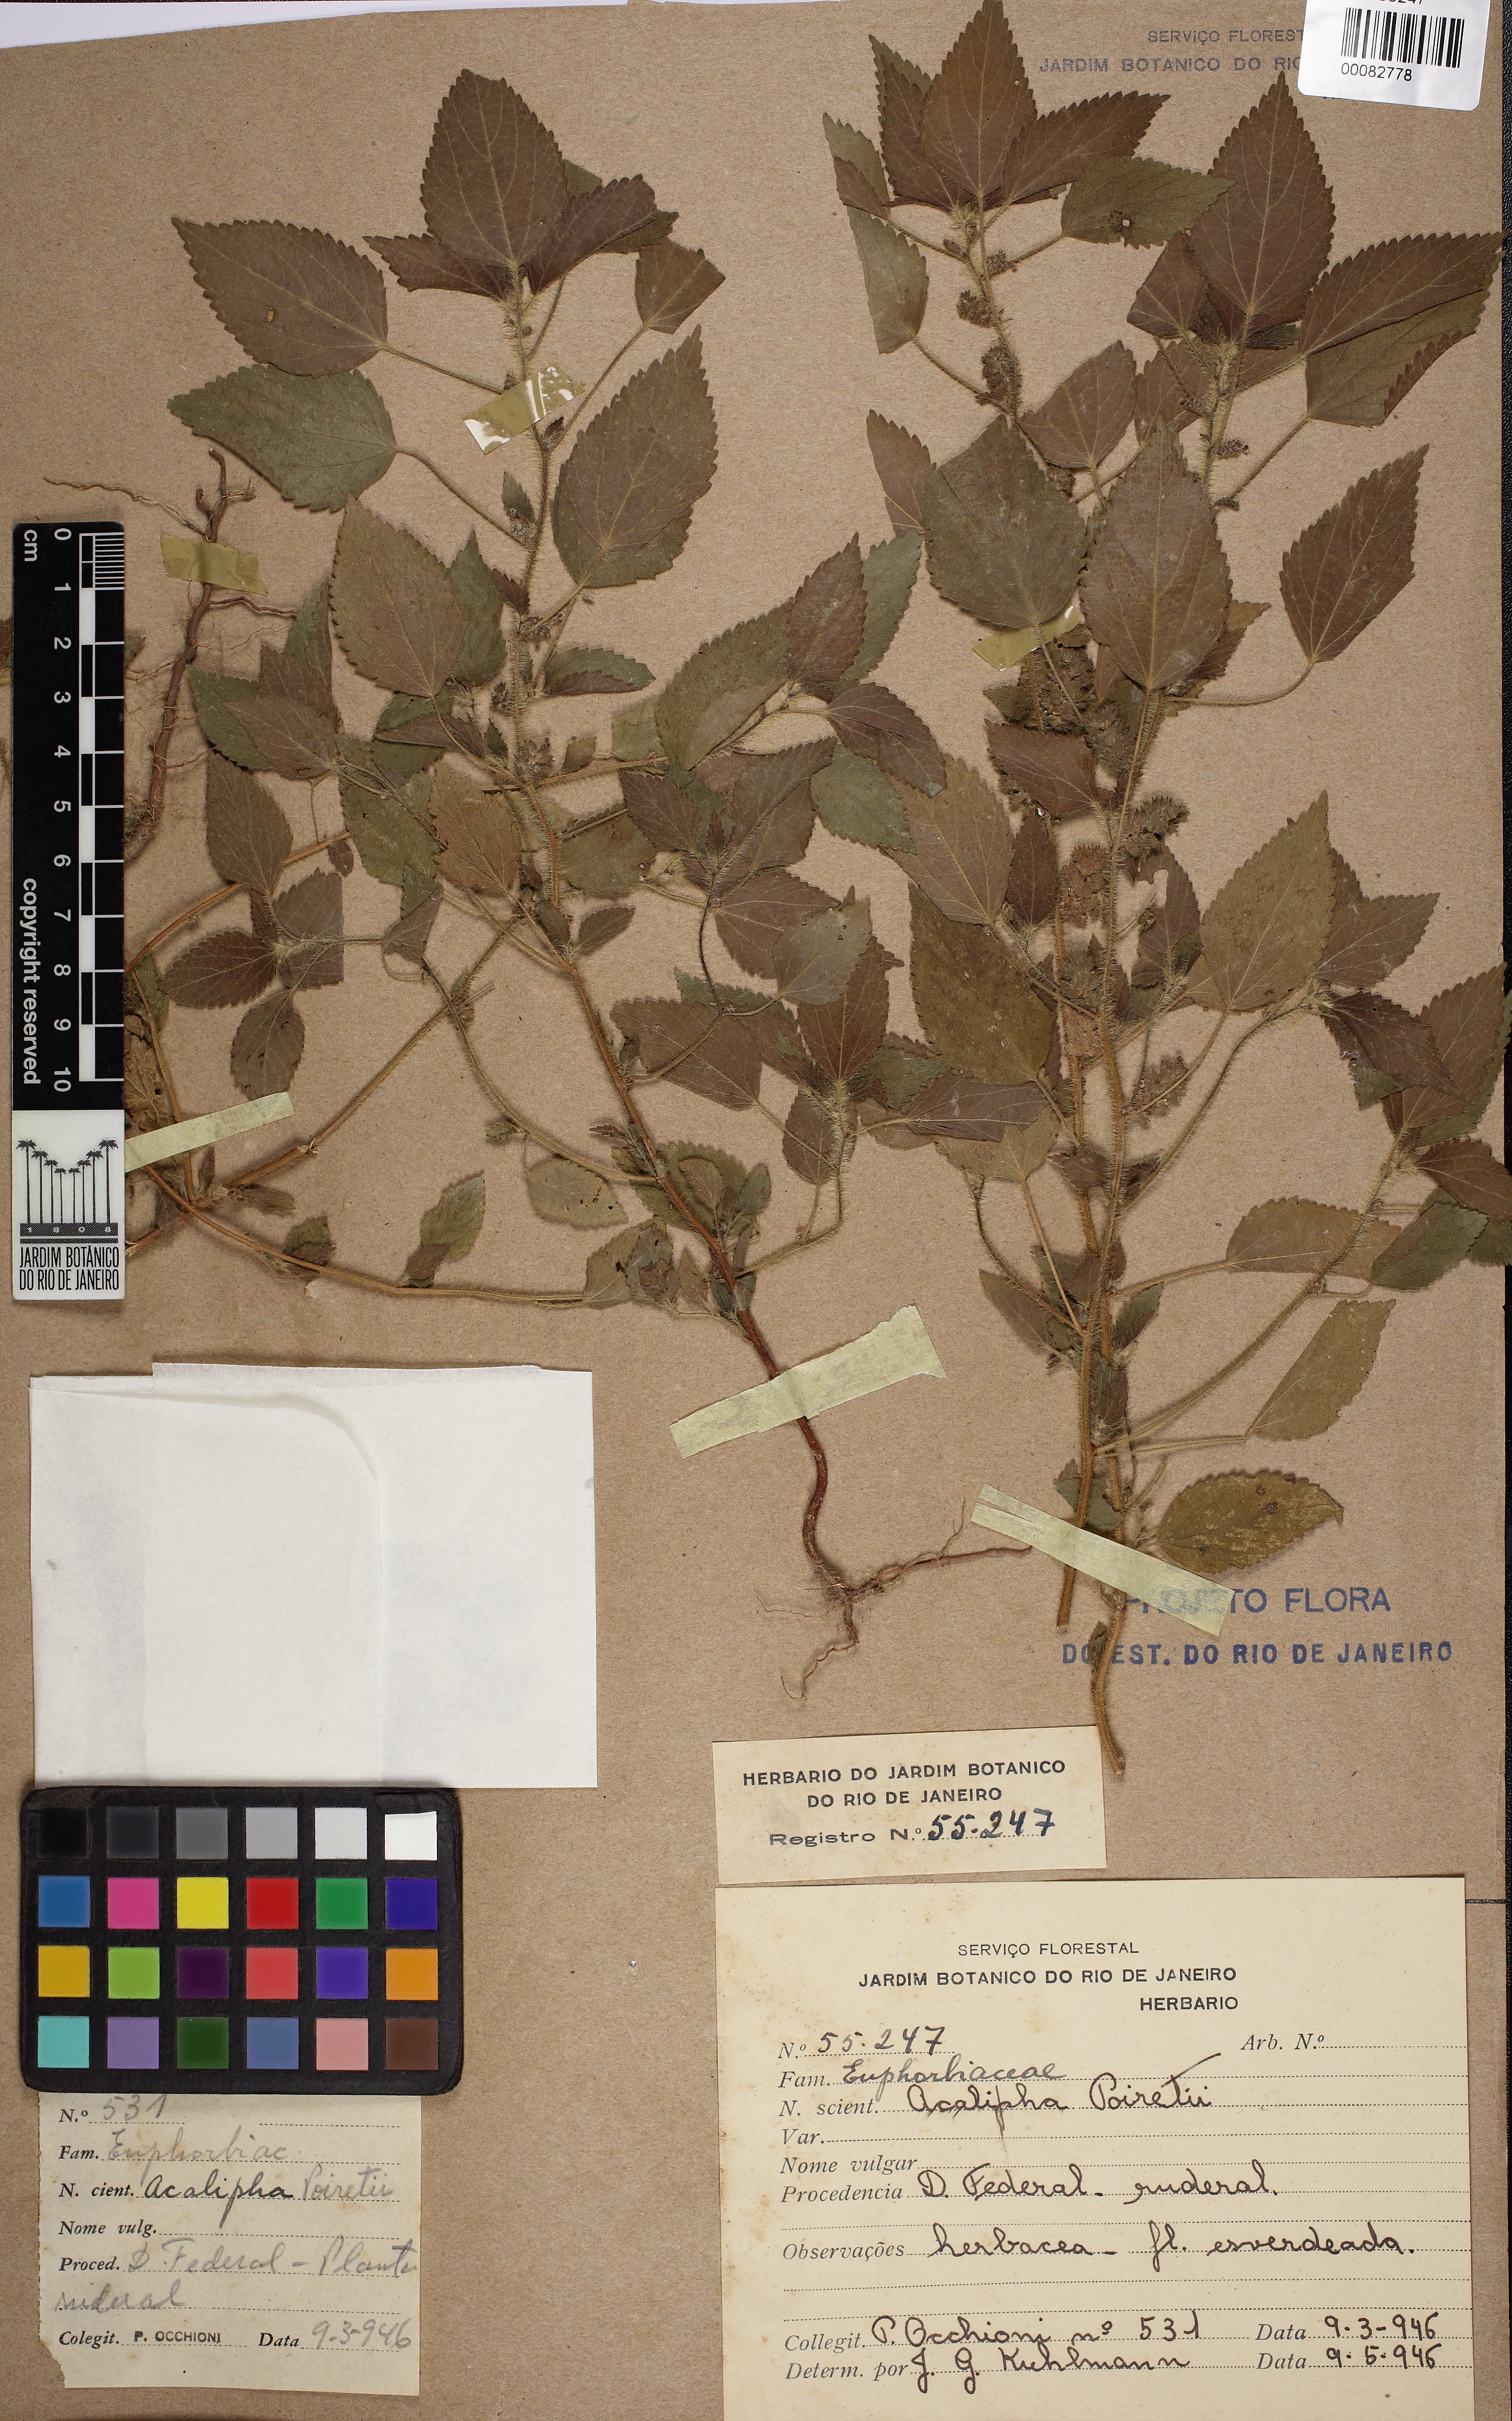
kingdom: Plantae
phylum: Tracheophyta
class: Magnoliopsida
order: Malpighiales
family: Euphorbiaceae
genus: Acalypha
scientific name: Acalypha poiretii
